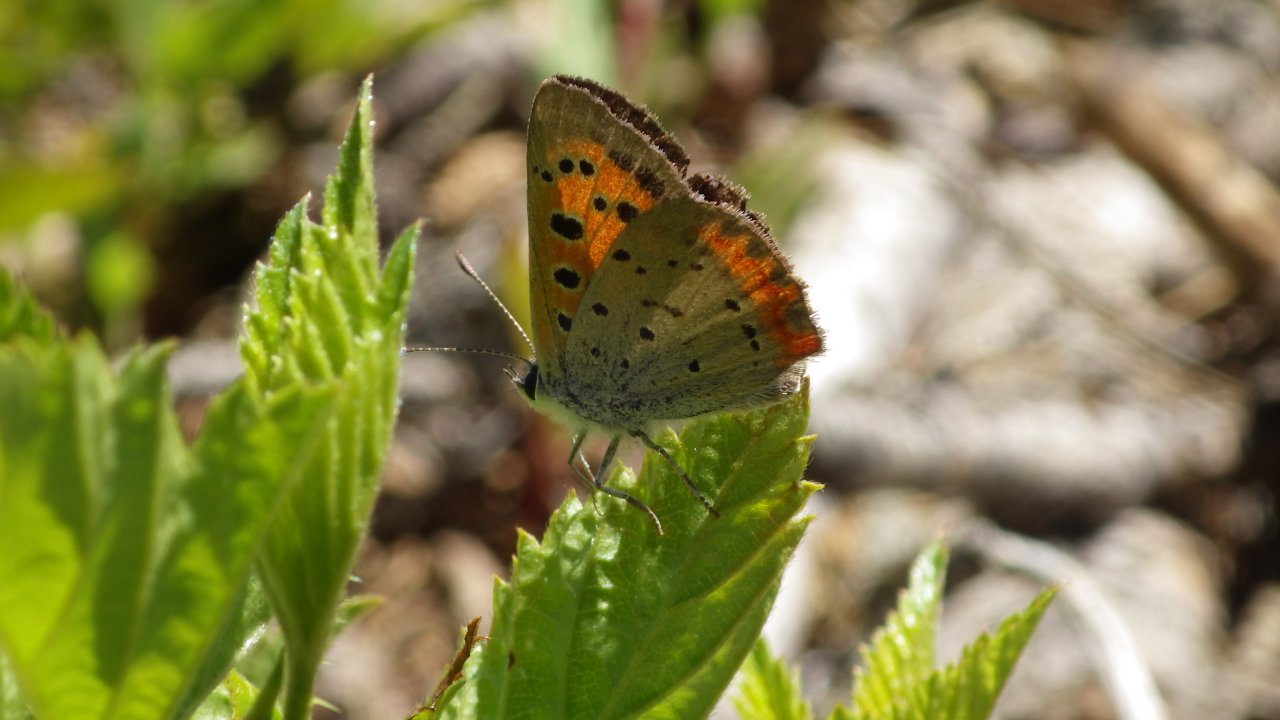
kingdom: Animalia
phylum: Arthropoda
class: Insecta
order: Lepidoptera
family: Lycaenidae
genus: Lycaena
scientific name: Lycaena phlaeas
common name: American Copper
